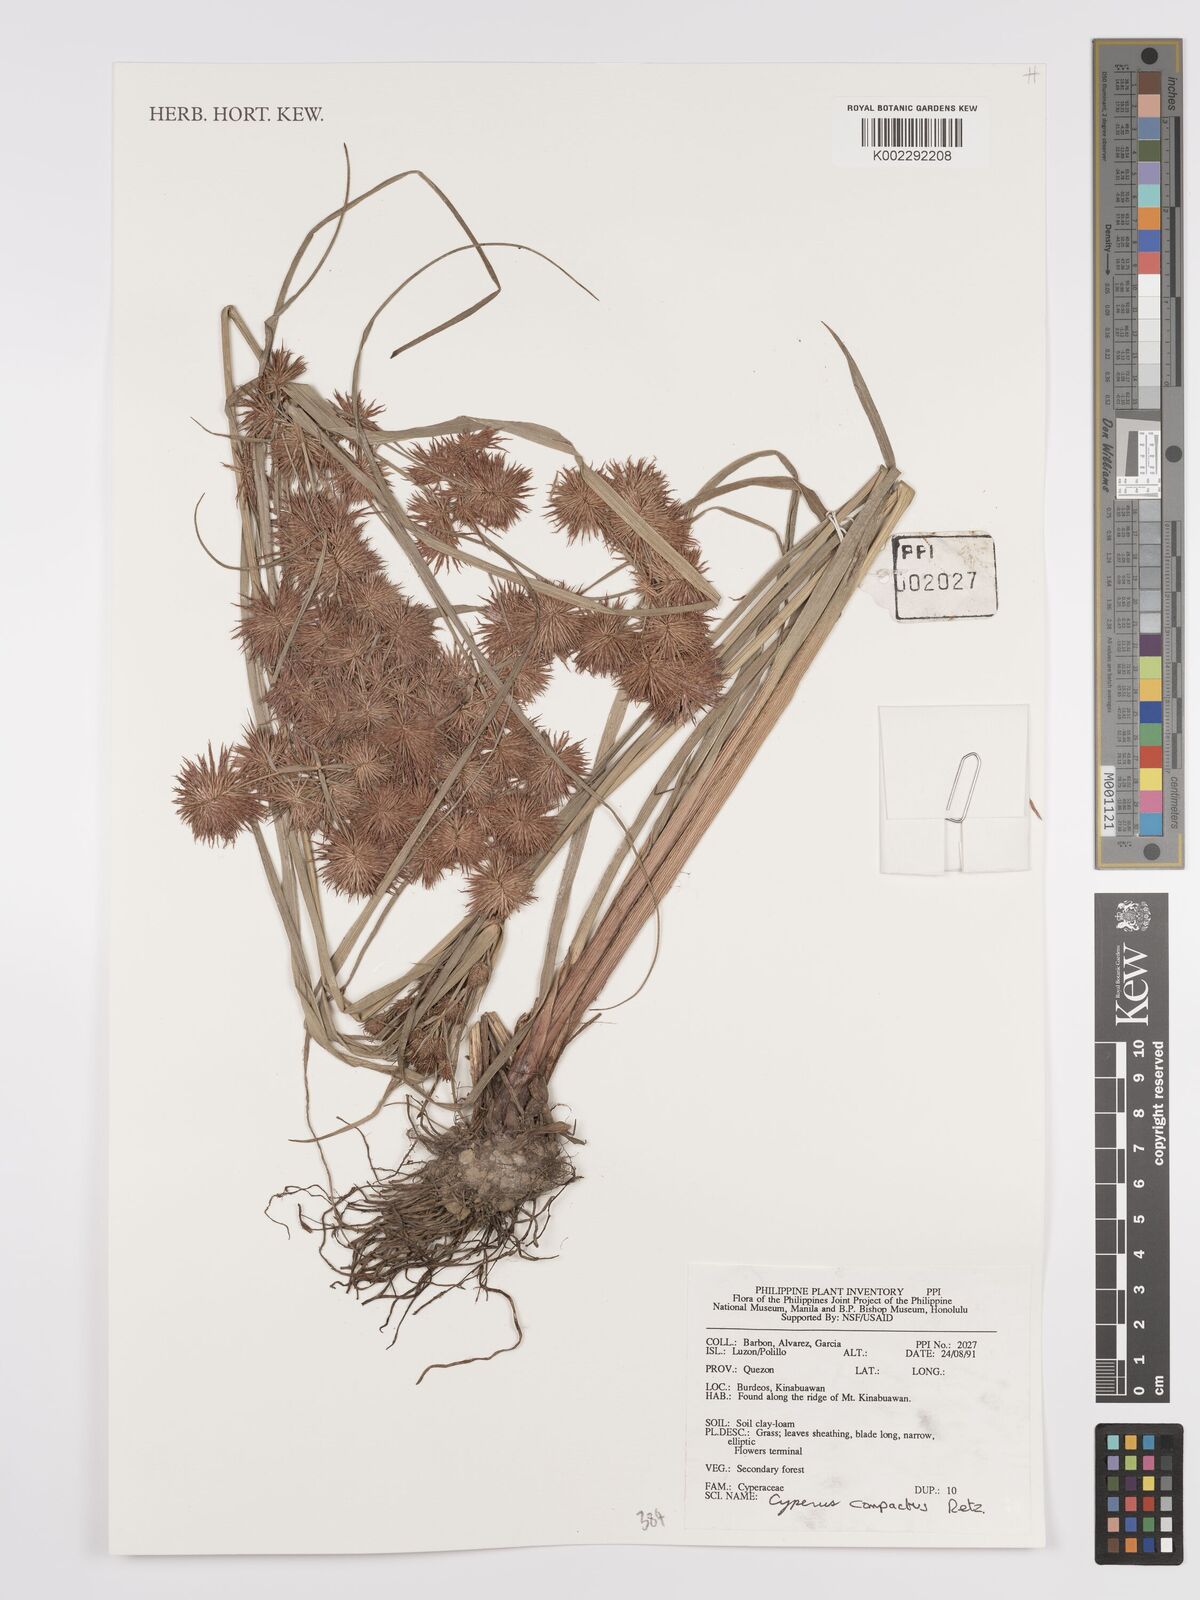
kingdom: Plantae
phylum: Tracheophyta
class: Liliopsida
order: Poales
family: Cyperaceae
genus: Cyperus
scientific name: Cyperus compactus
